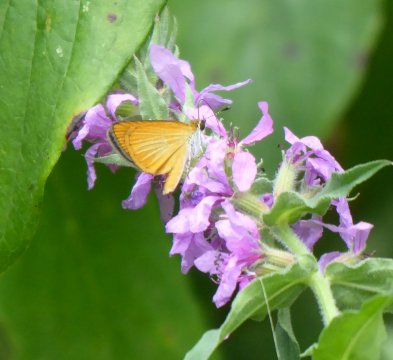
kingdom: Animalia
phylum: Arthropoda
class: Insecta
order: Lepidoptera
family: Hesperiidae
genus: Ancyloxypha
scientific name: Ancyloxypha numitor
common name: Least Skipper
